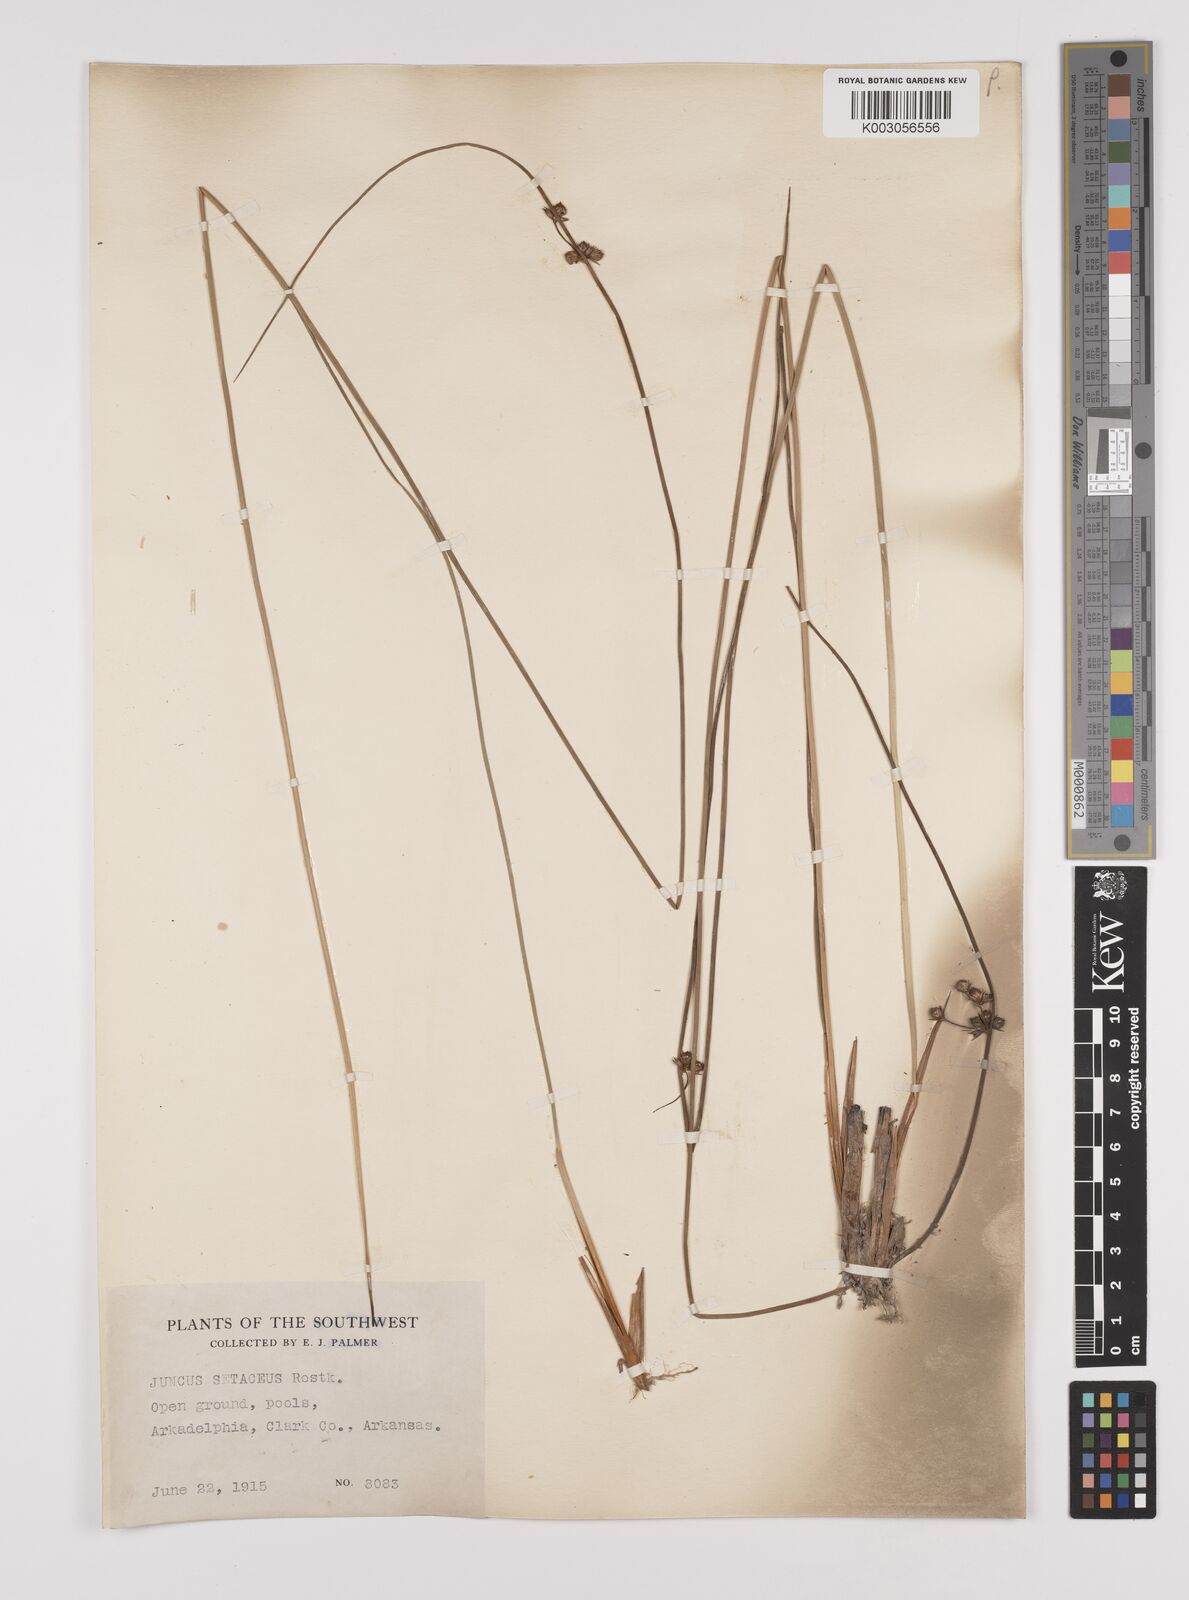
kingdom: Plantae
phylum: Tracheophyta
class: Liliopsida
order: Poales
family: Juncaceae
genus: Juncus
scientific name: Juncus balticus
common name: Baltic rush
